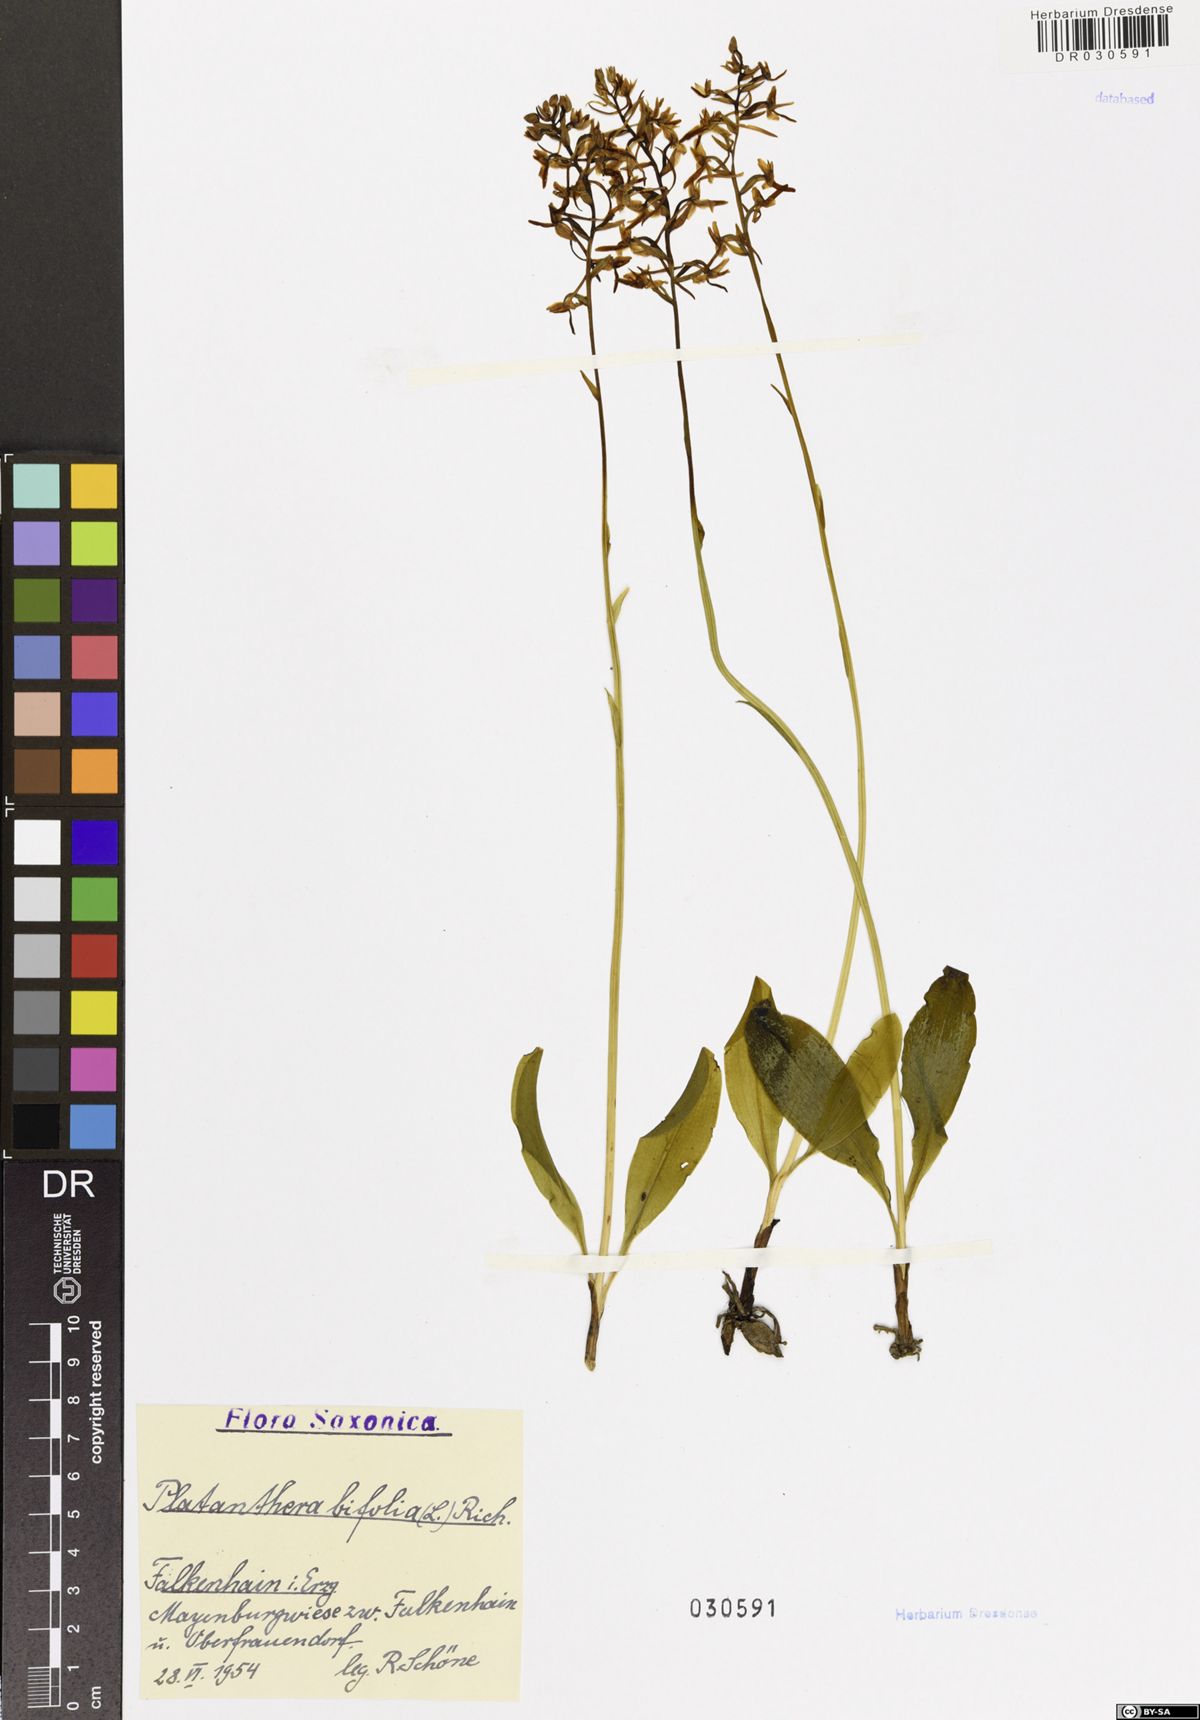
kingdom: Plantae
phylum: Tracheophyta
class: Liliopsida
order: Asparagales
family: Orchidaceae
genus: Platanthera
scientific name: Platanthera bifolia
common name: Lesser butterfly-orchid
